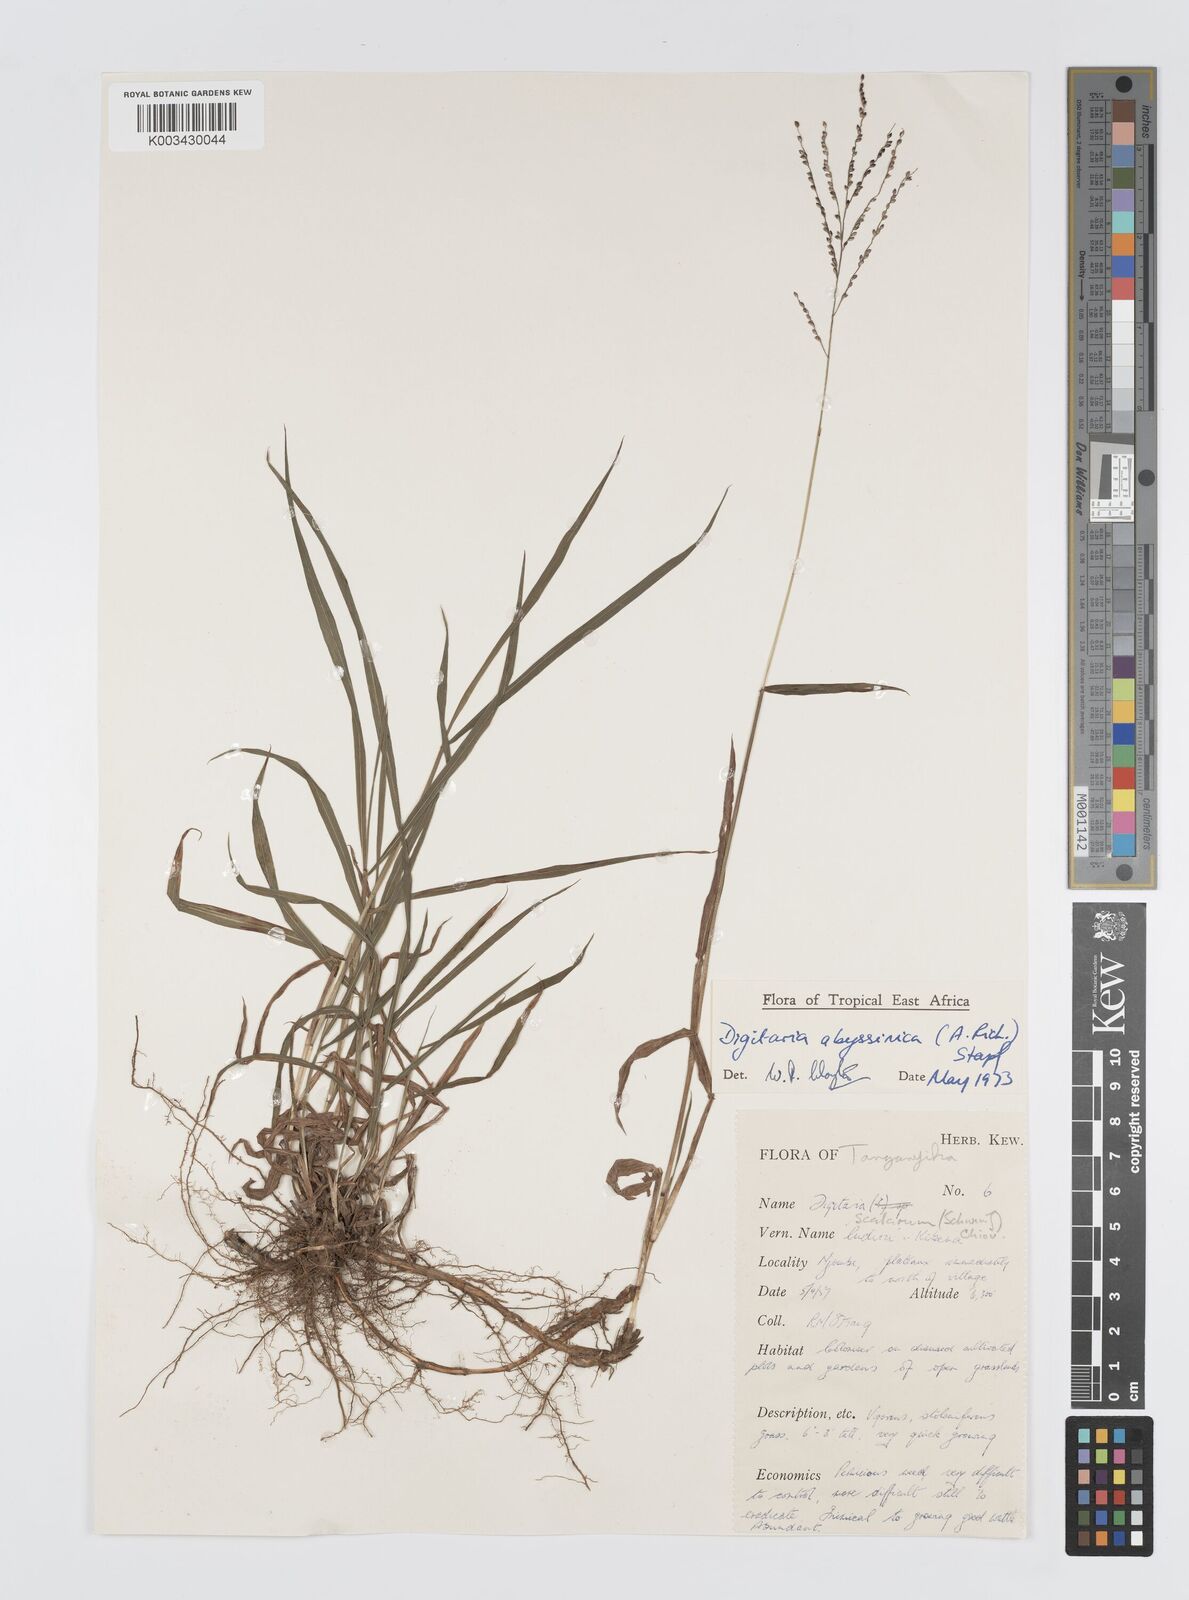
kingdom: Plantae
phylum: Tracheophyta
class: Liliopsida
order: Poales
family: Poaceae
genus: Digitaria
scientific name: Digitaria abyssinica
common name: African couchgrass
